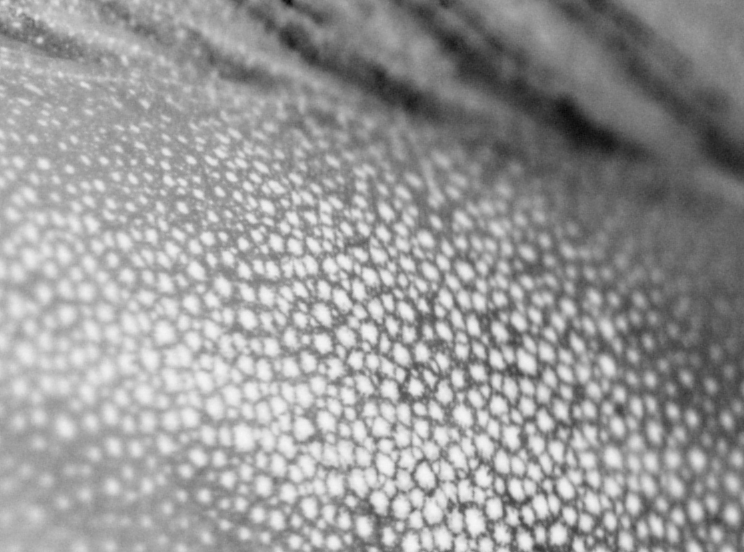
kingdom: Animalia
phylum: Chordata
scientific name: Chordata
